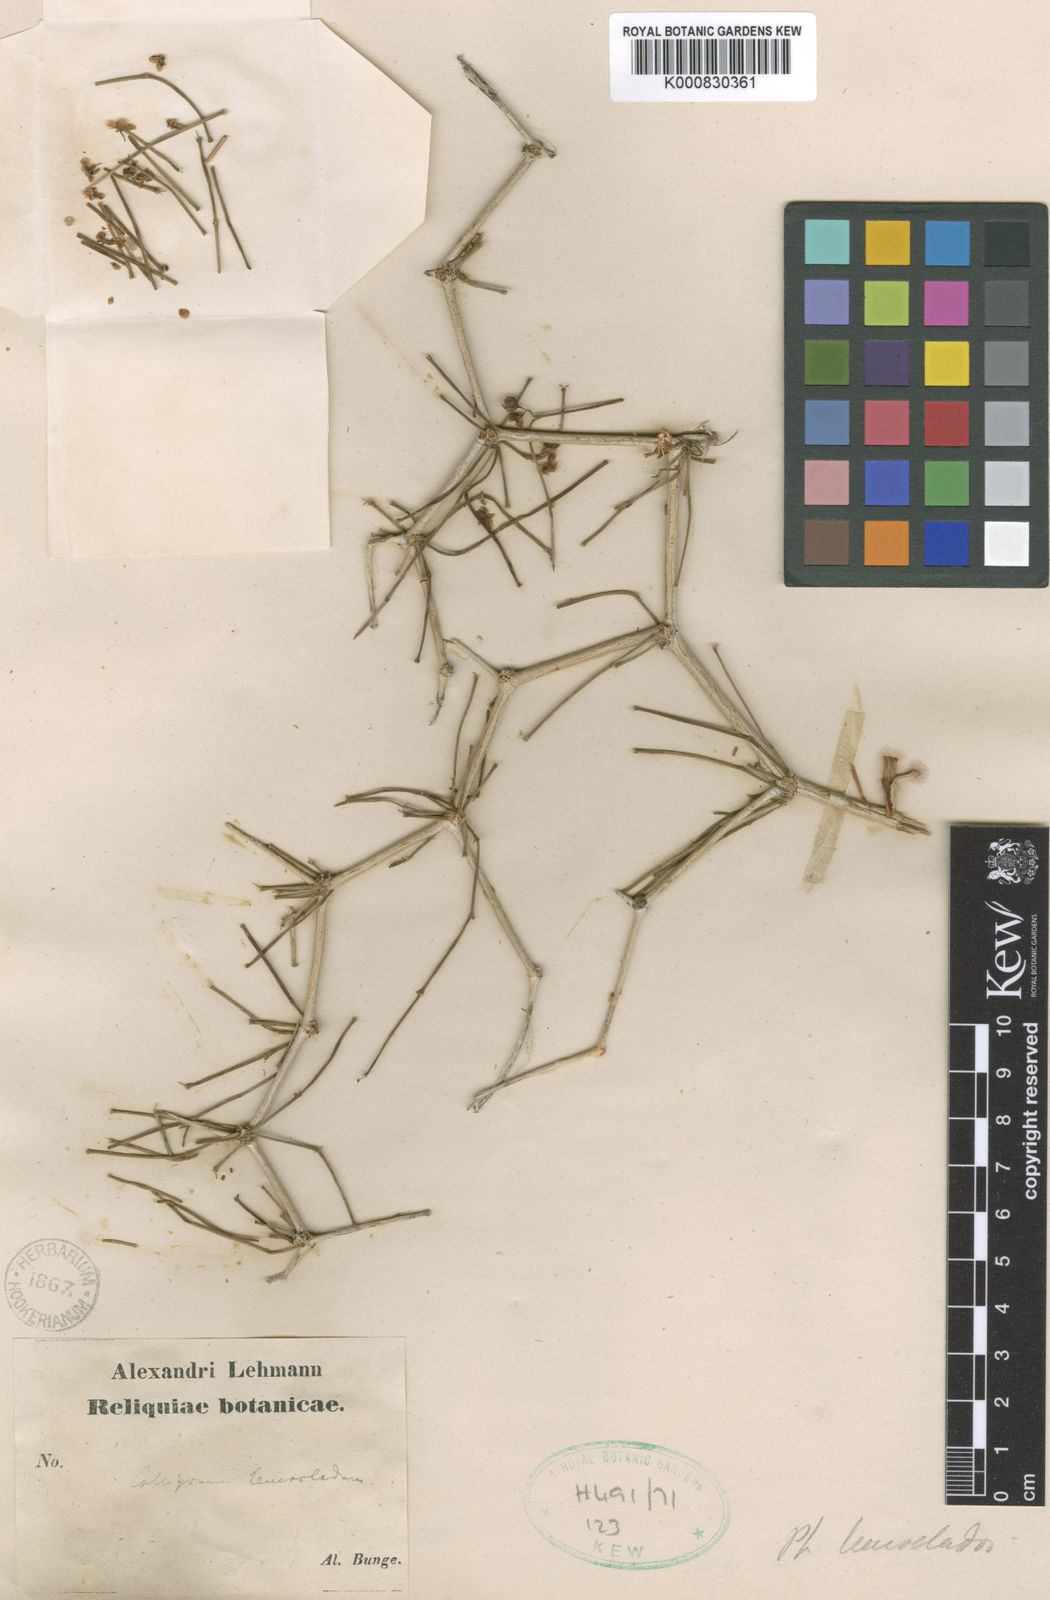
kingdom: Plantae
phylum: Tracheophyta
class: Magnoliopsida
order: Caryophyllales
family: Polygonaceae
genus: Calligonum
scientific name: Calligonum leucocladum
